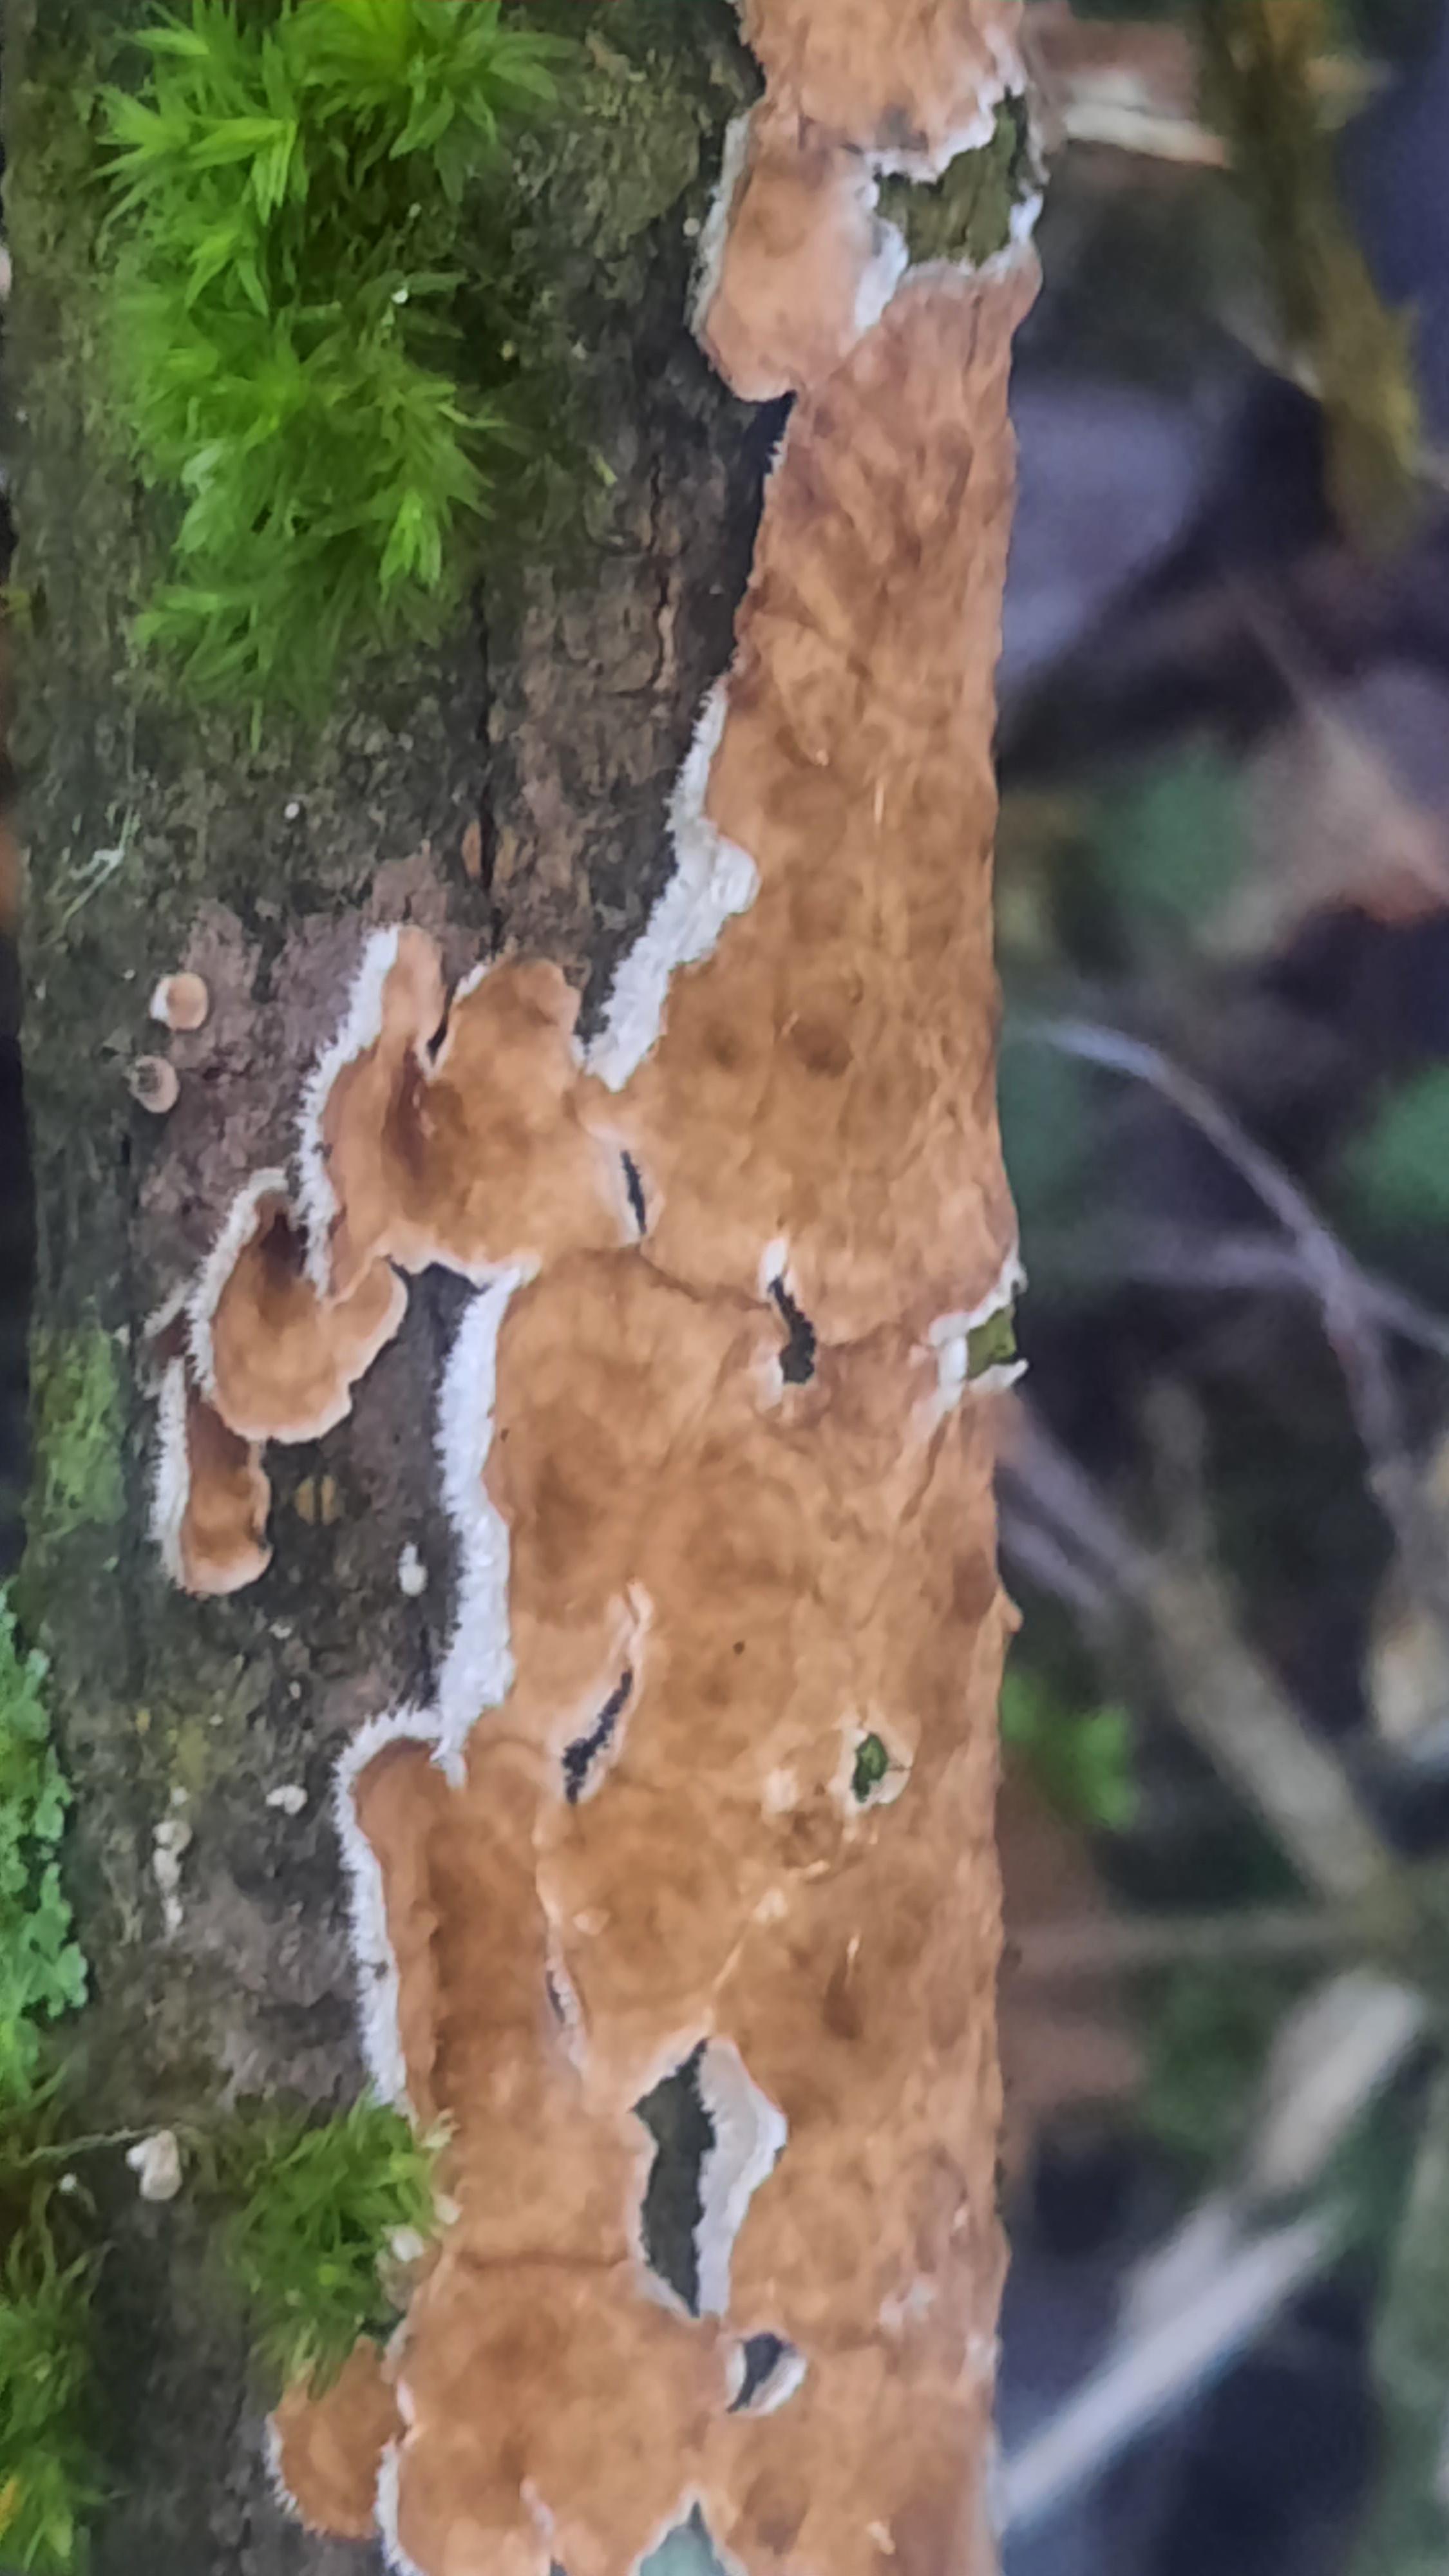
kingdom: Fungi
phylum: Basidiomycota
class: Agaricomycetes
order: Hymenochaetales
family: Hymenochaetaceae
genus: Hydnoporia
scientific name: Hydnoporia tabacina
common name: tobaksbrun ruslædersvamp
